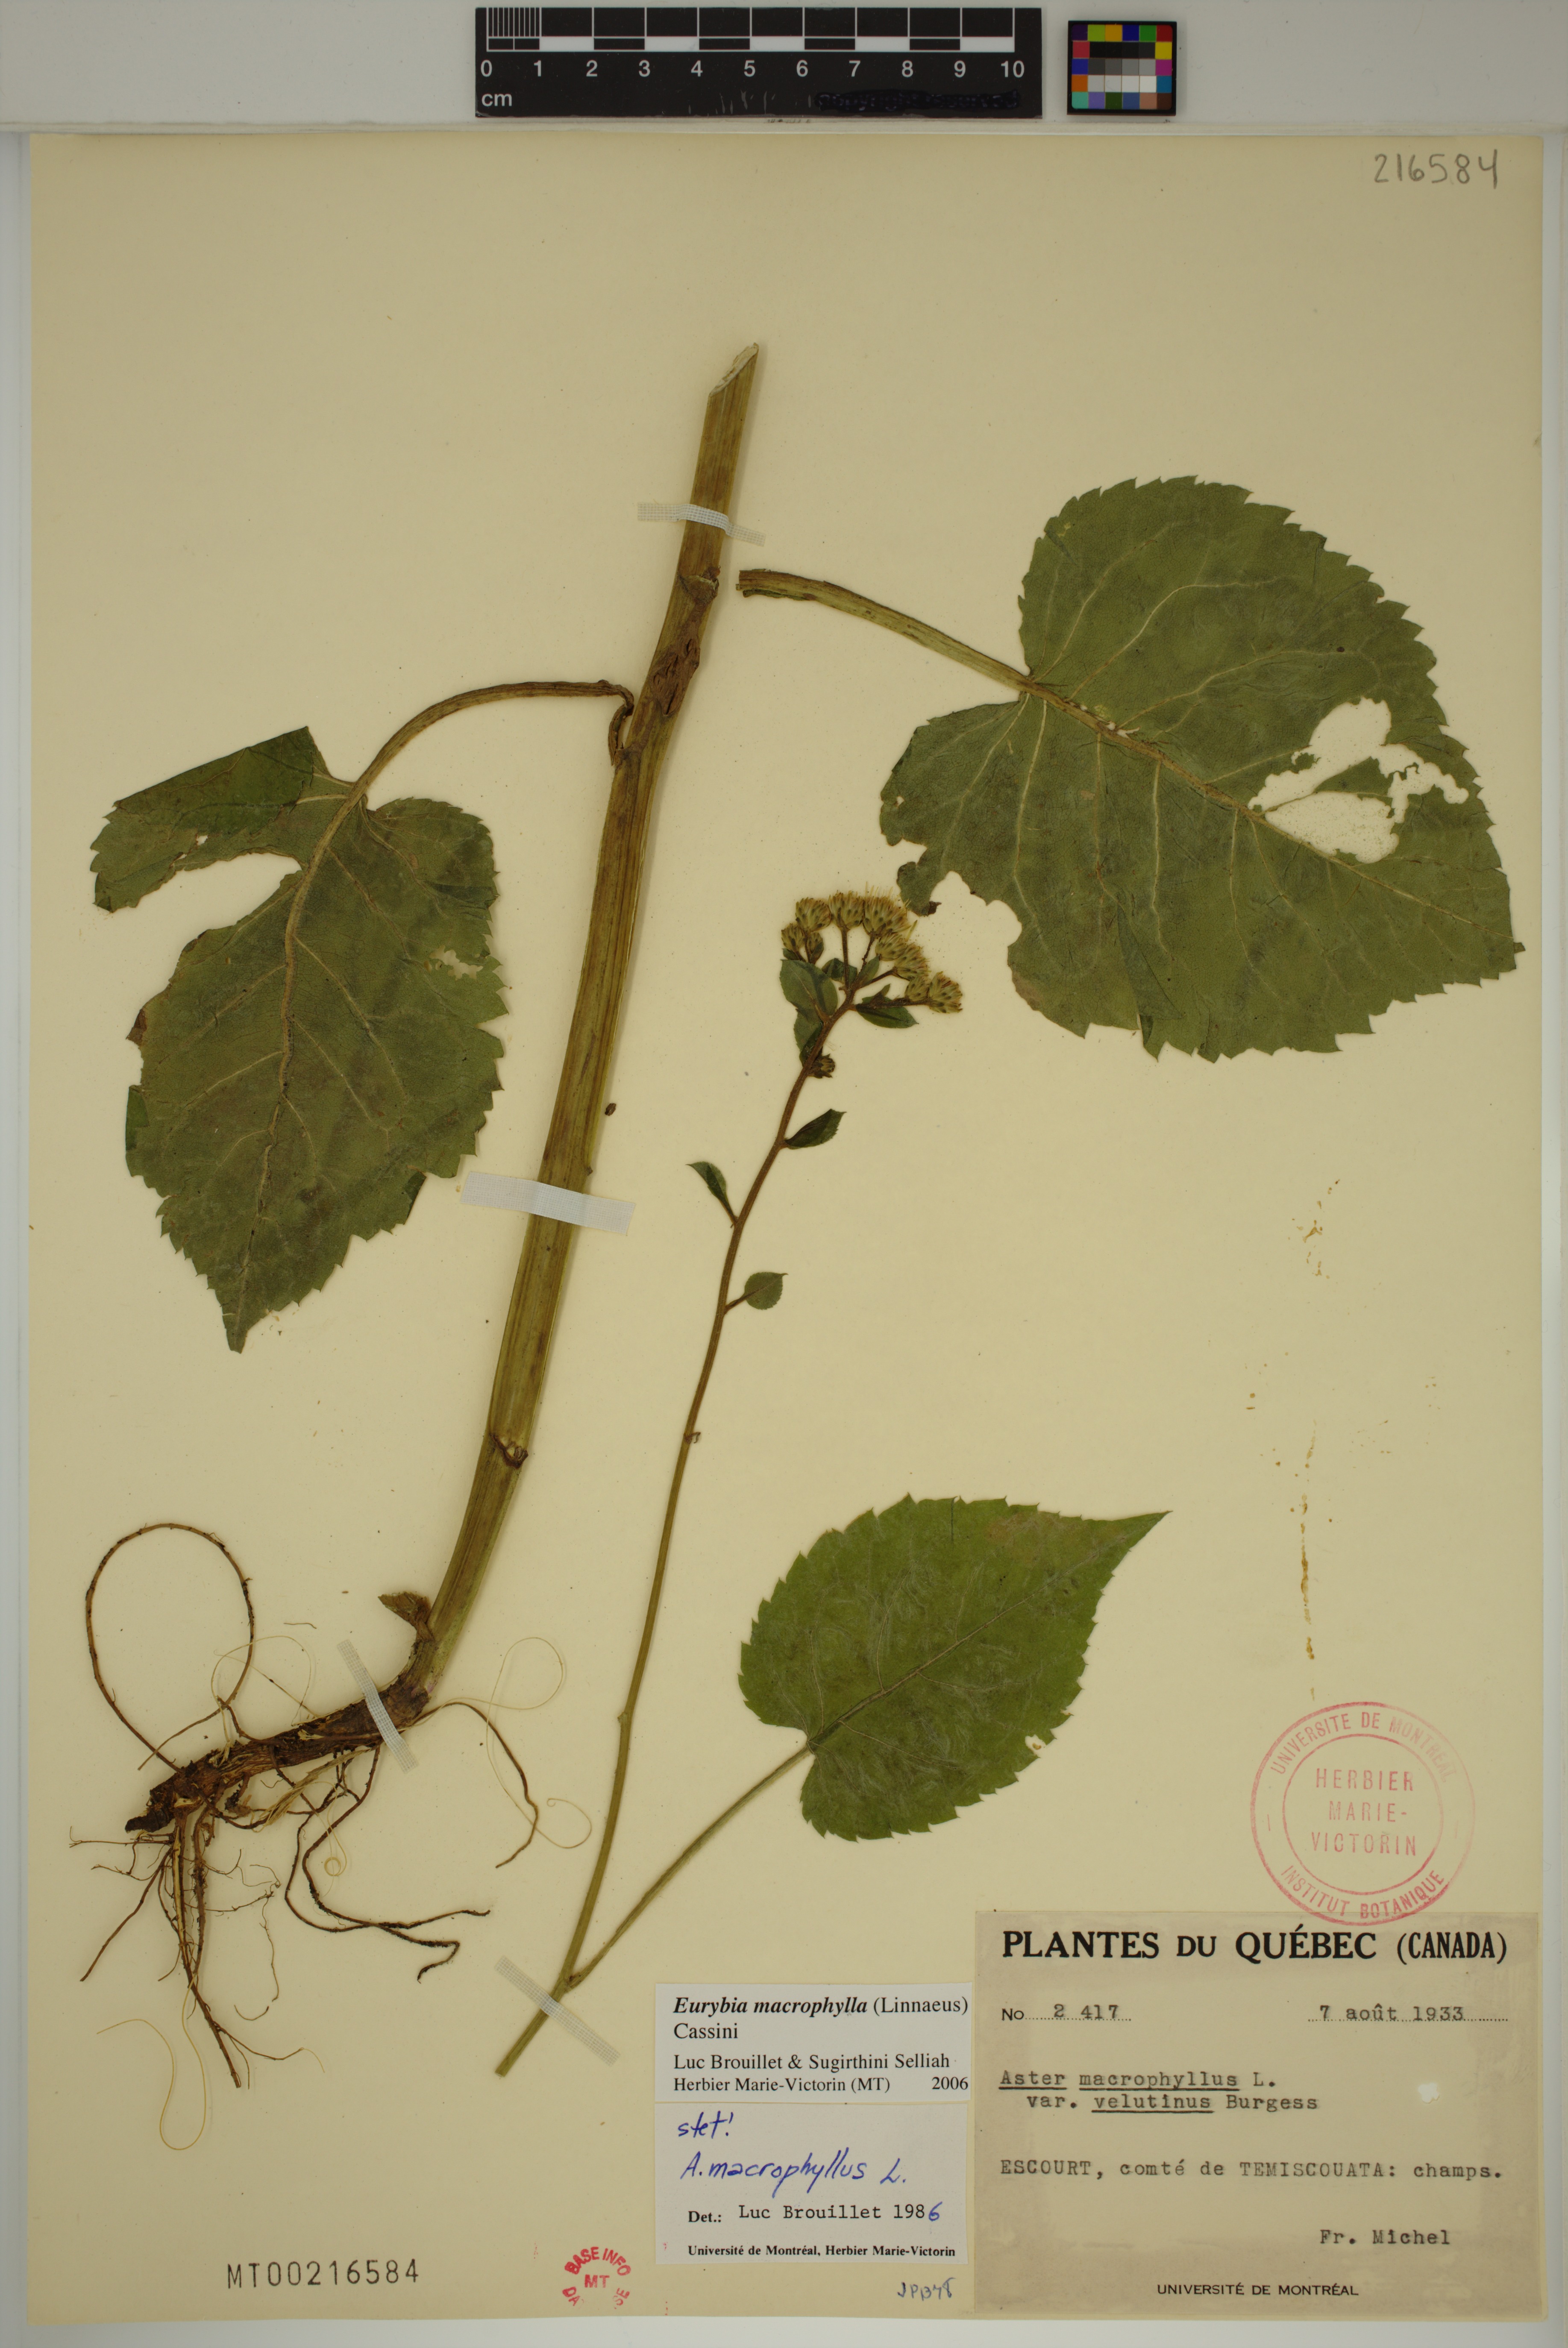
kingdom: Plantae
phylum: Tracheophyta
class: Magnoliopsida
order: Asterales
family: Asteraceae
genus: Eurybia
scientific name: Eurybia macrophylla
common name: Big-leaved aster
